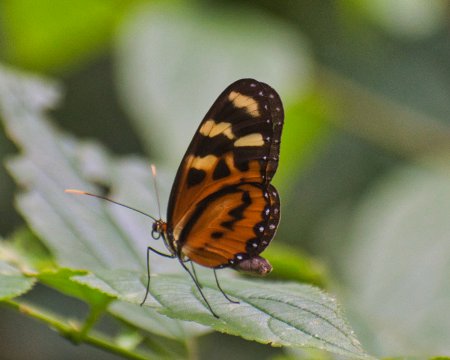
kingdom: Animalia
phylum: Arthropoda
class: Insecta
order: Lepidoptera
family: Nymphalidae
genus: Mechanitis
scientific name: Mechanitis menapis
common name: Menapis Tigerwing
